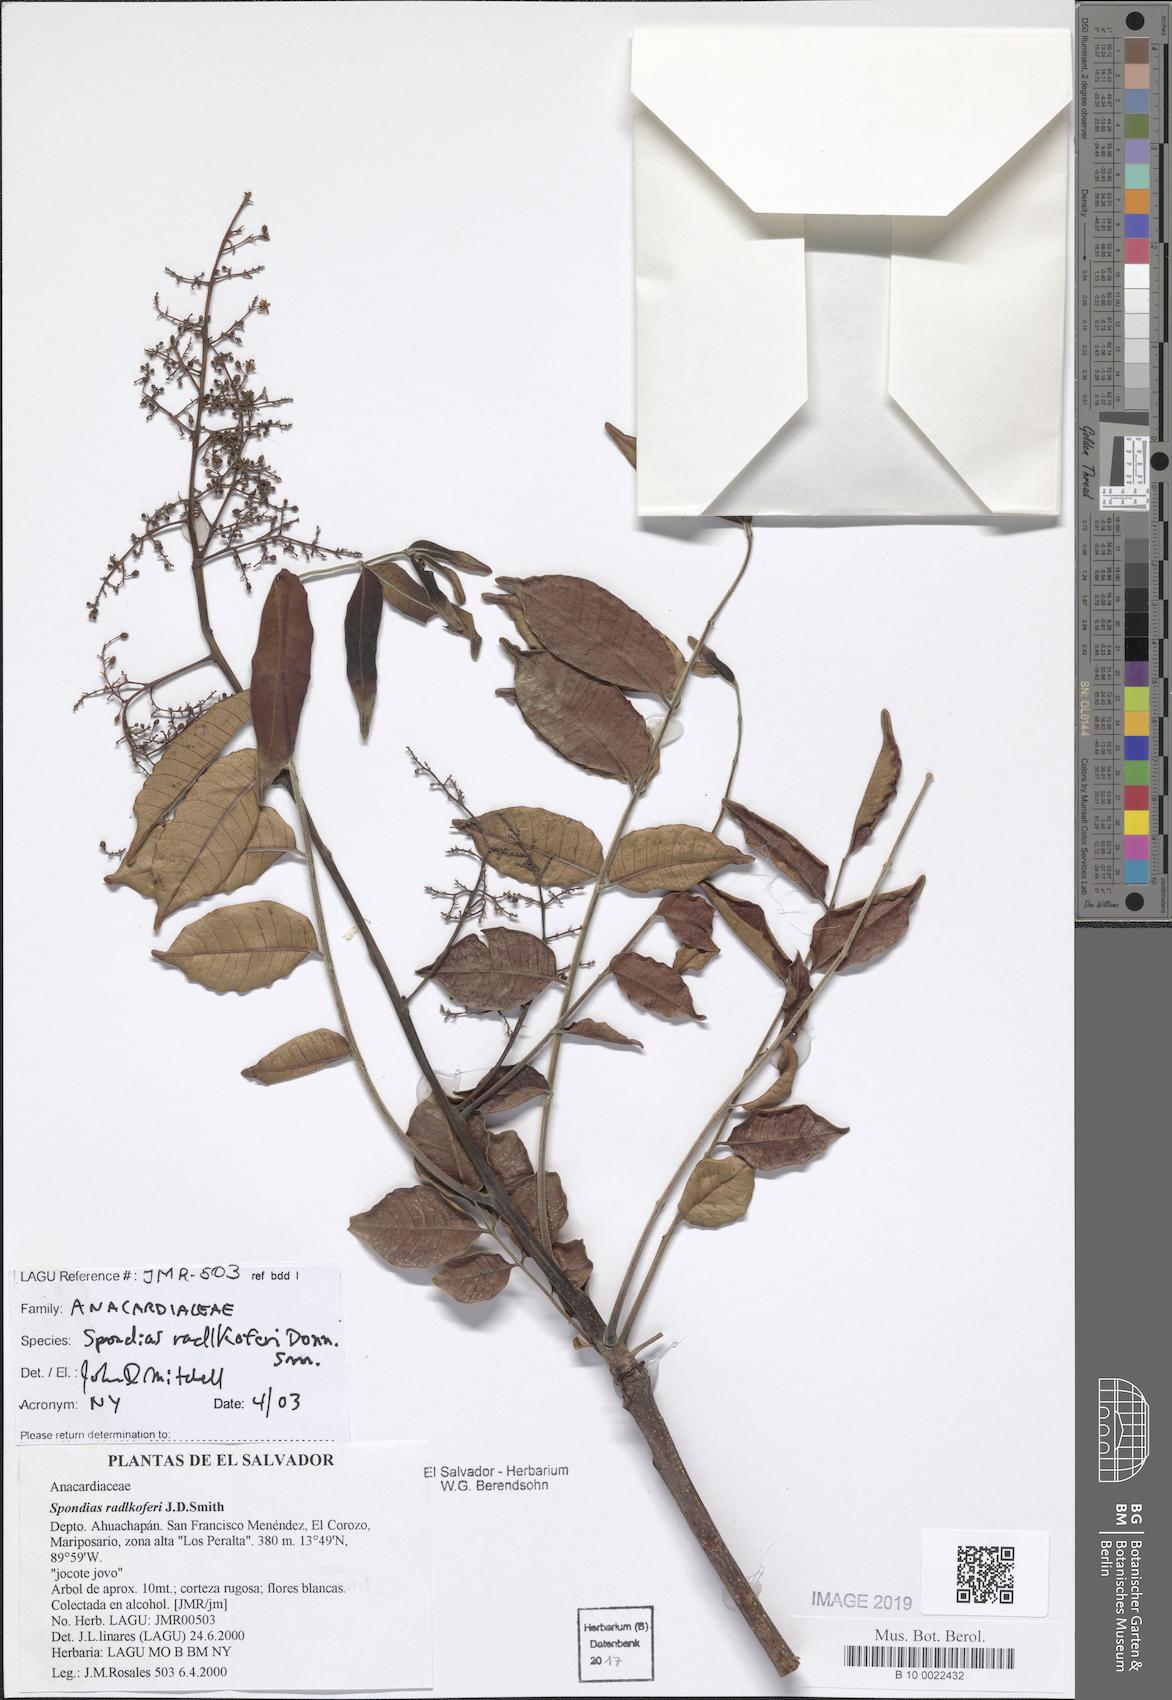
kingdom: Plantae
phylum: Tracheophyta
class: Magnoliopsida
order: Sapindales
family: Anacardiaceae
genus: Spondias
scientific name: Spondias radlkoferi
